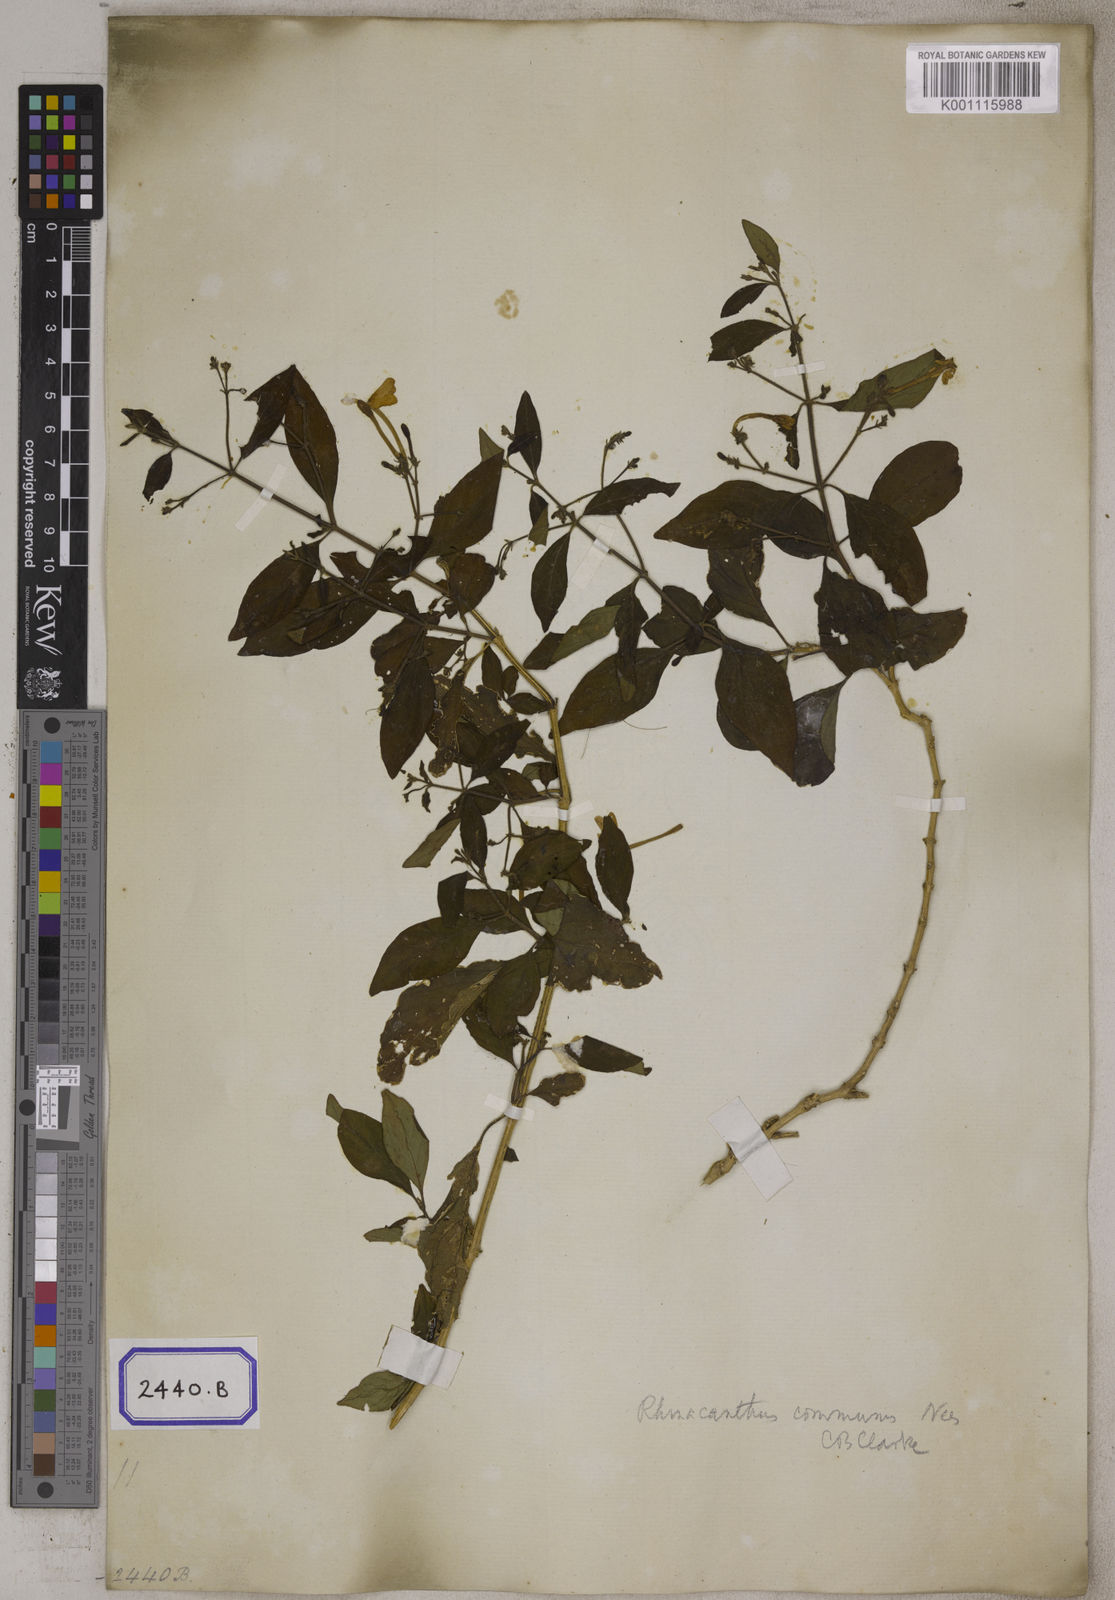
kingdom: Plantae
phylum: Tracheophyta
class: Magnoliopsida
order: Lamiales
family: Acanthaceae
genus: Rhinacanthus
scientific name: Rhinacanthus nasutus
